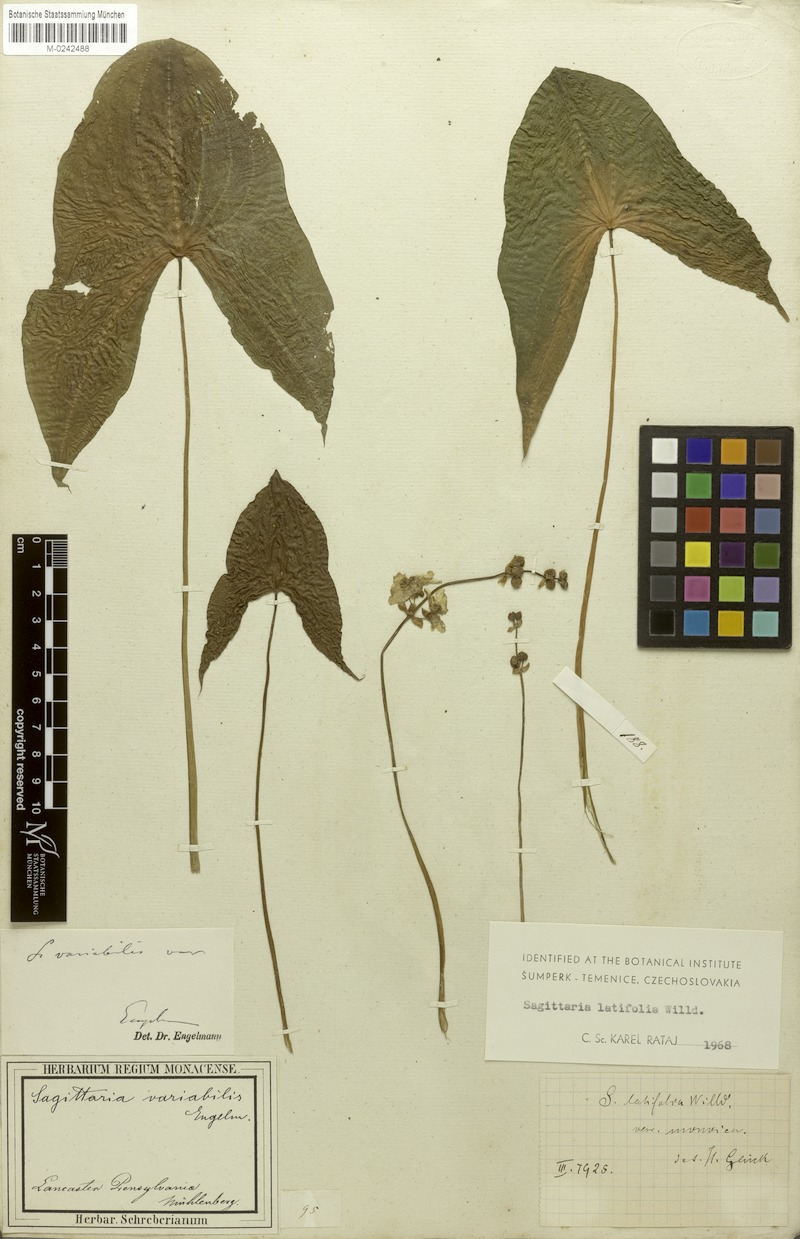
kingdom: Plantae
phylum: Tracheophyta
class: Liliopsida
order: Alismatales
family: Alismataceae
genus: Sagittaria
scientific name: Sagittaria latifolia
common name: Duck-potato
